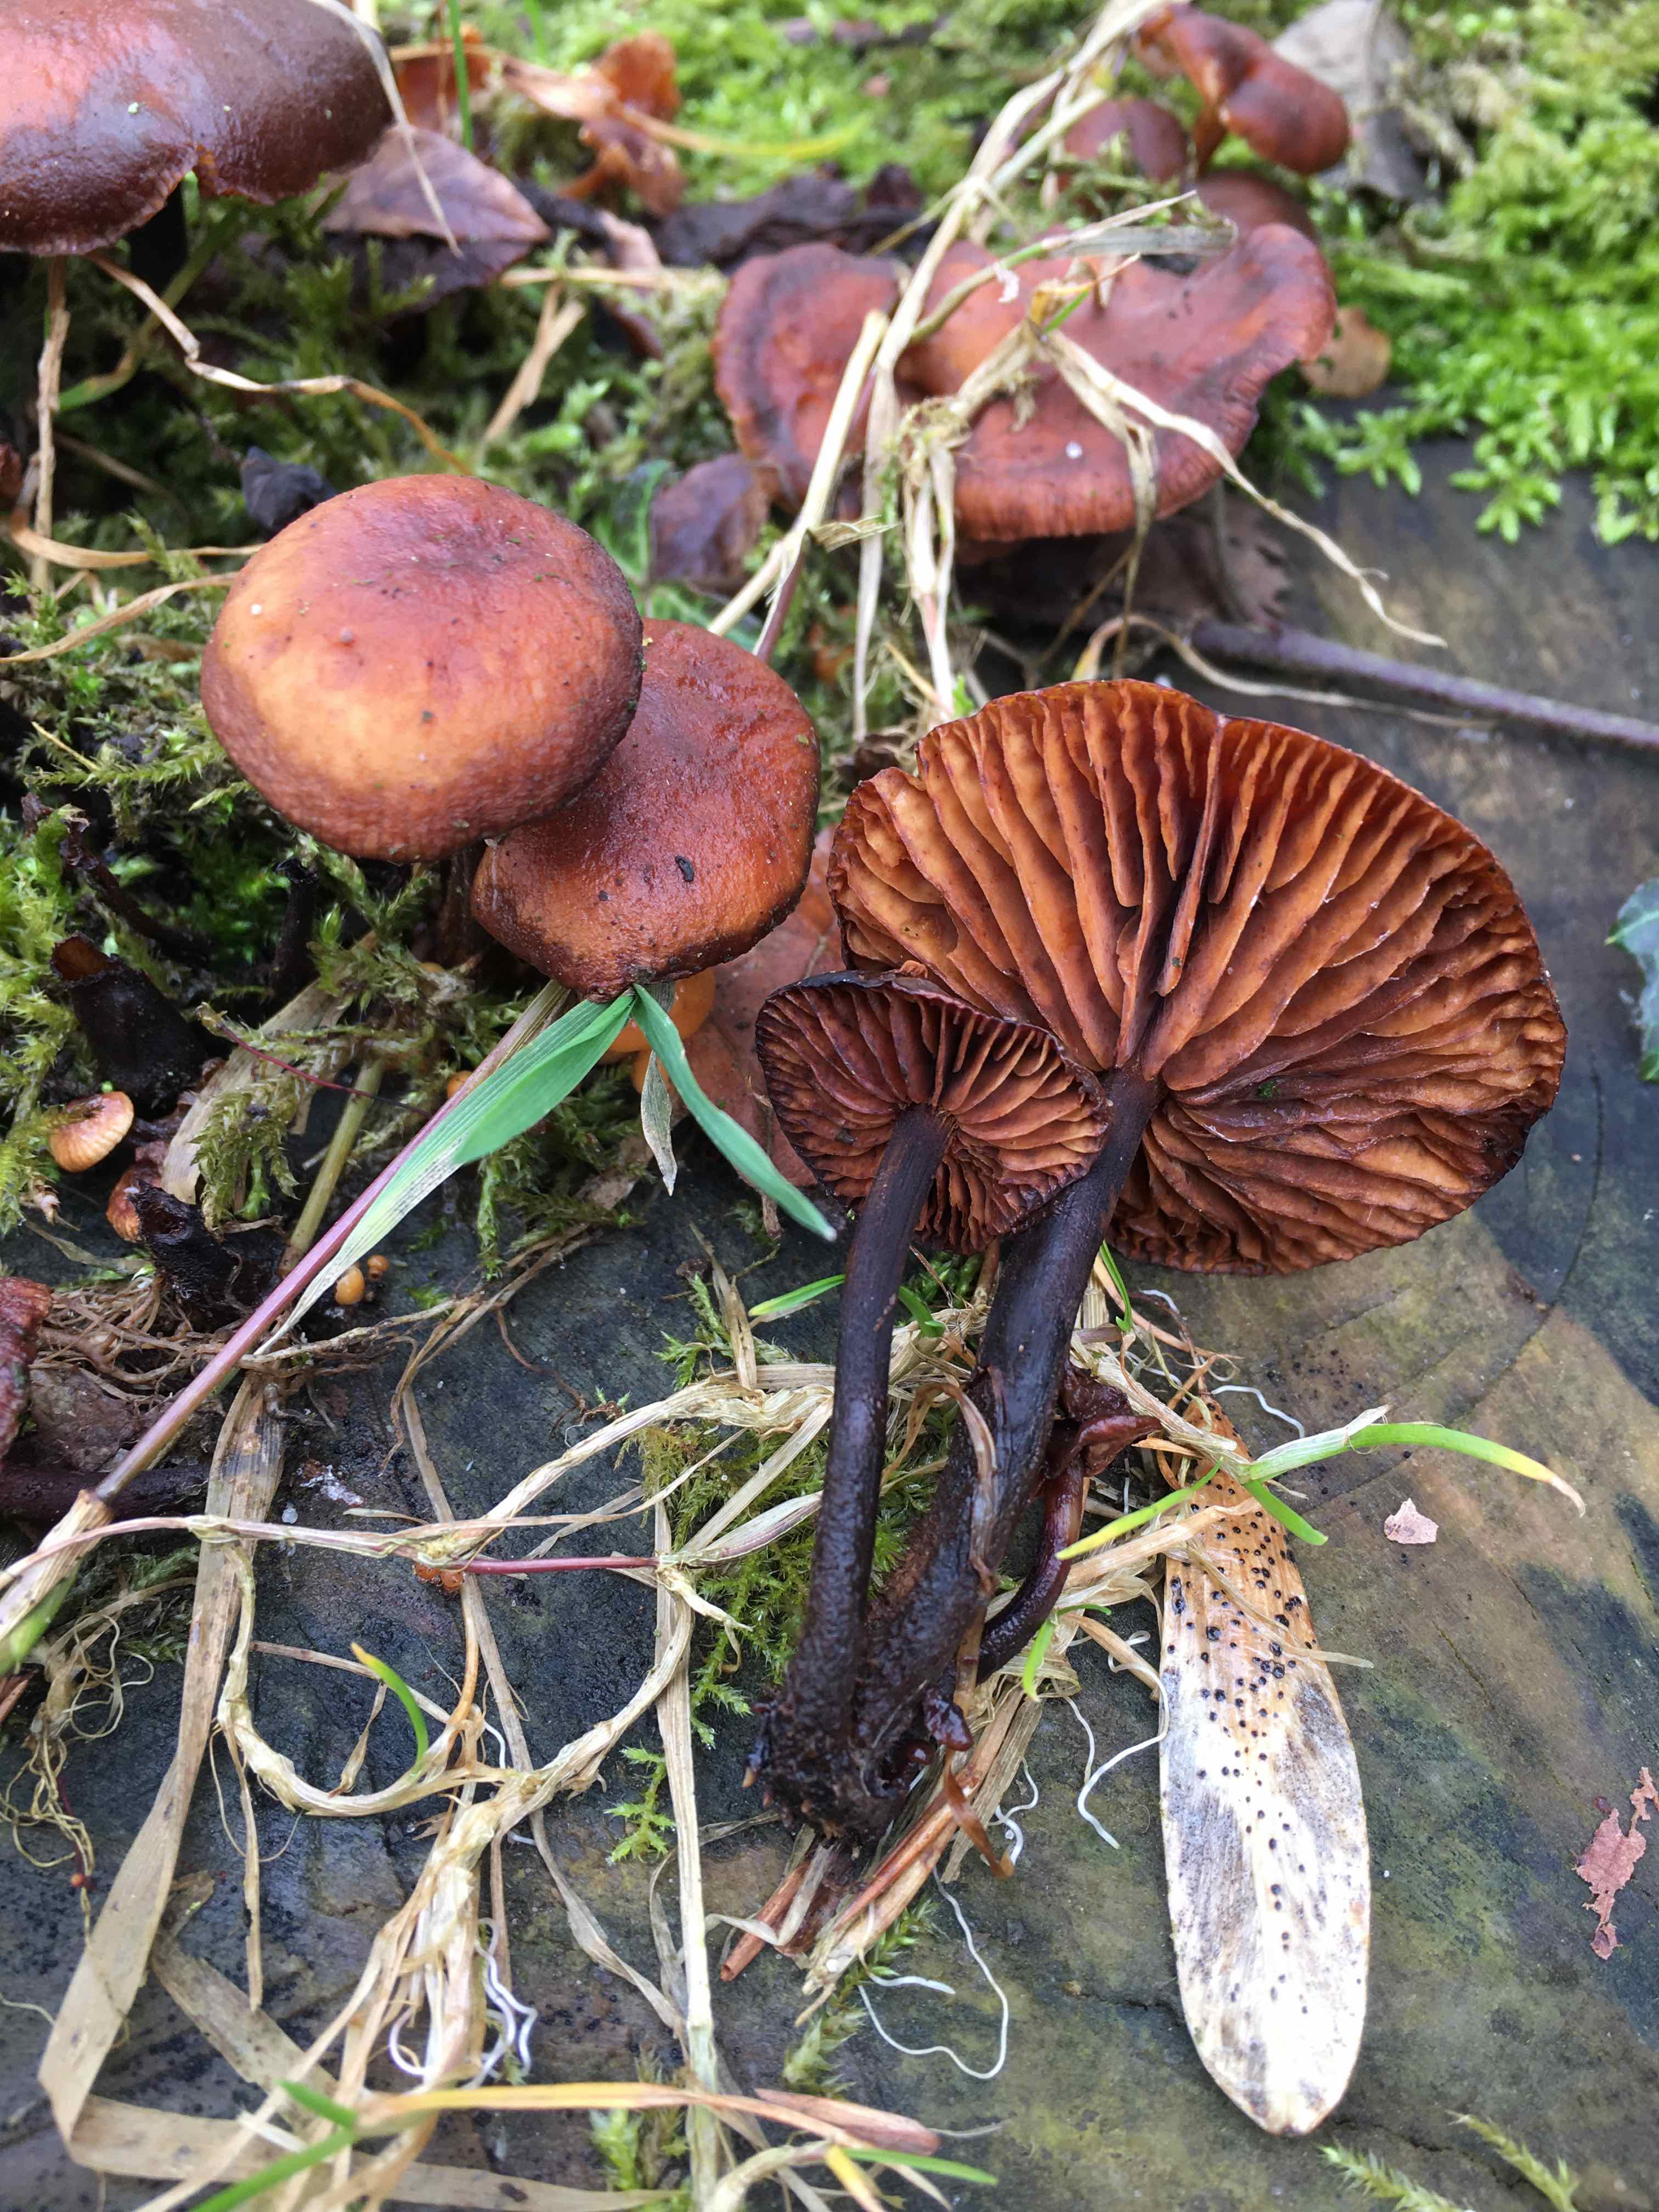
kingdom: Fungi
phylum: Basidiomycota
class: Agaricomycetes
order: Agaricales
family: Physalacriaceae
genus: Flammulina
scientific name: Flammulina velutipes
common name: gul fløjlsfod
